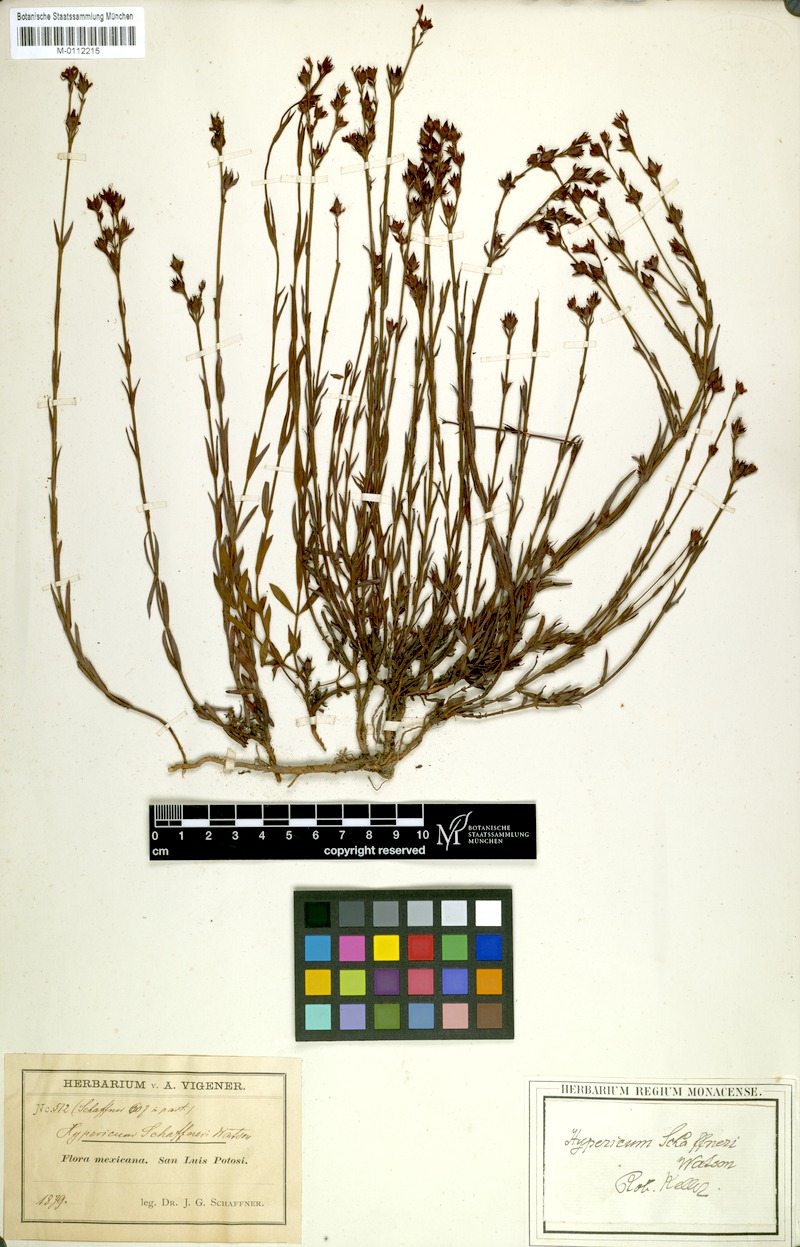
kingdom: Plantae
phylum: Tracheophyta
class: Magnoliopsida
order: Malpighiales
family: Hypericaceae
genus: Hypericum
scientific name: Hypericum moranense
